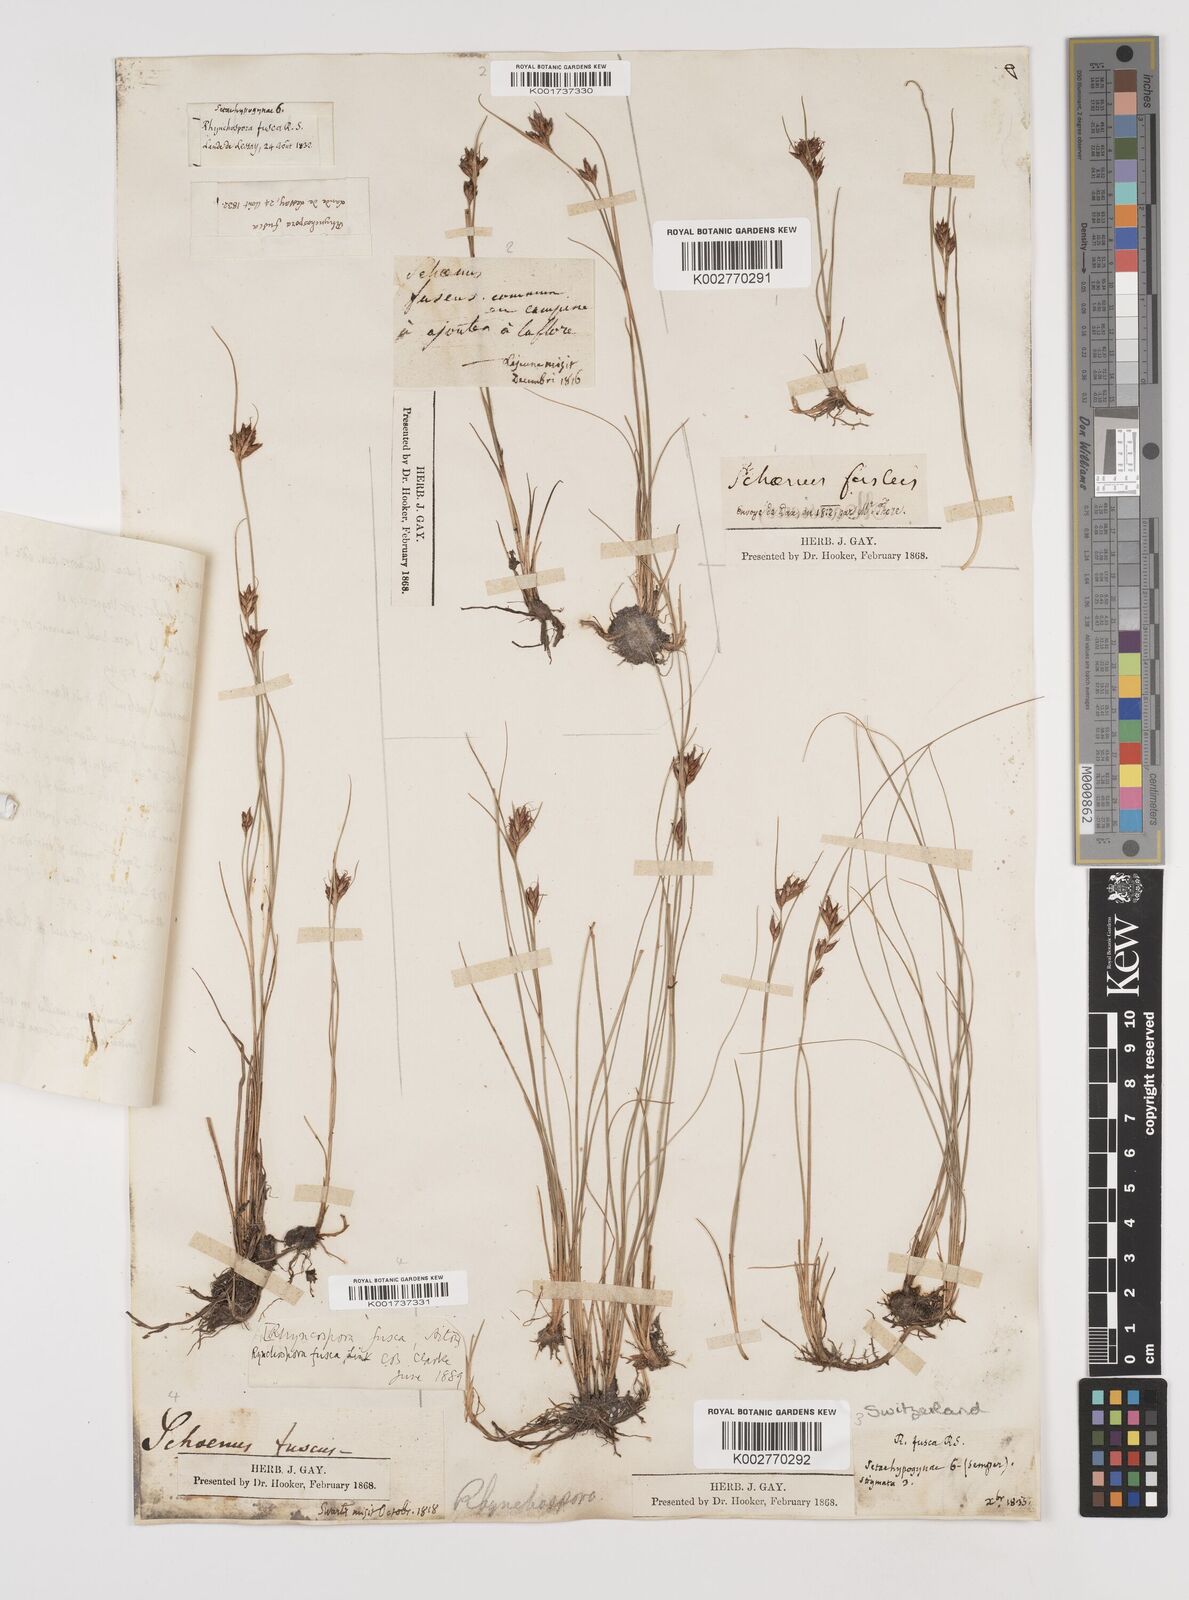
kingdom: Plantae
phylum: Tracheophyta
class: Liliopsida
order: Poales
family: Cyperaceae
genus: Rhynchospora
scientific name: Rhynchospora fusca
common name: Brown beak-sedge
